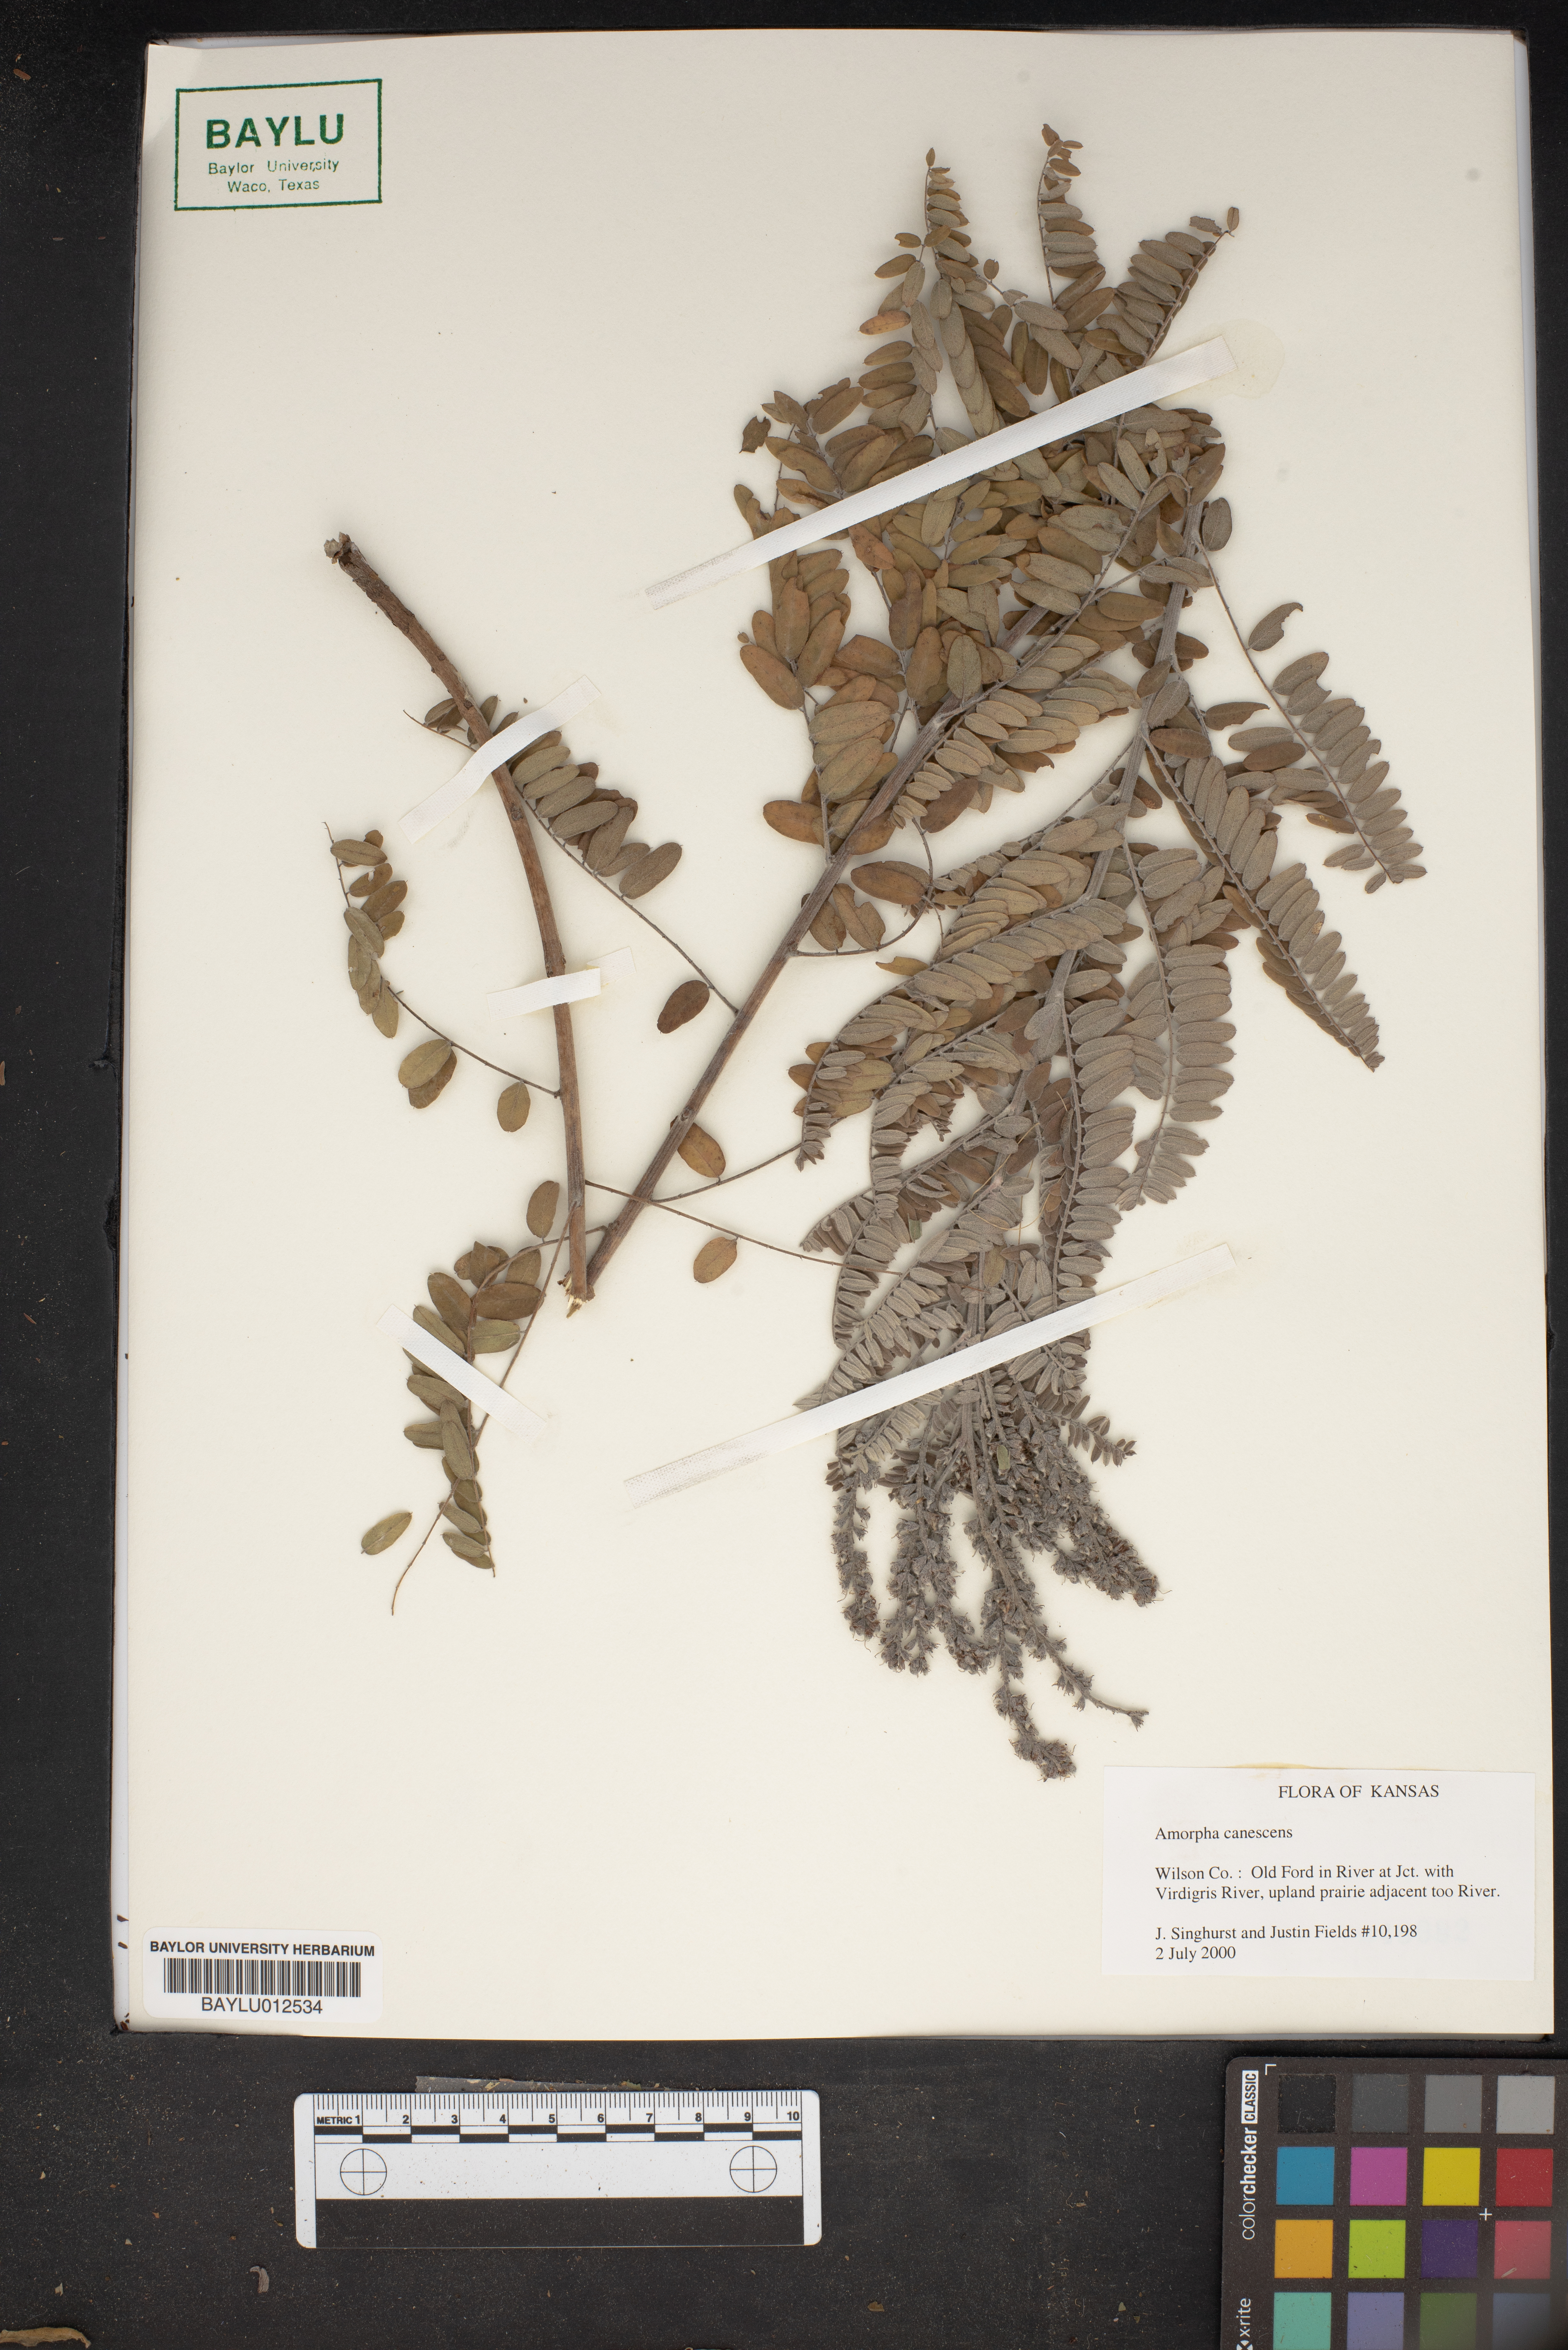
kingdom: Plantae
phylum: Tracheophyta
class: Magnoliopsida
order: Fabales
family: Fabaceae
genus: Amorpha
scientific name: Amorpha canescens
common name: Leadplant
